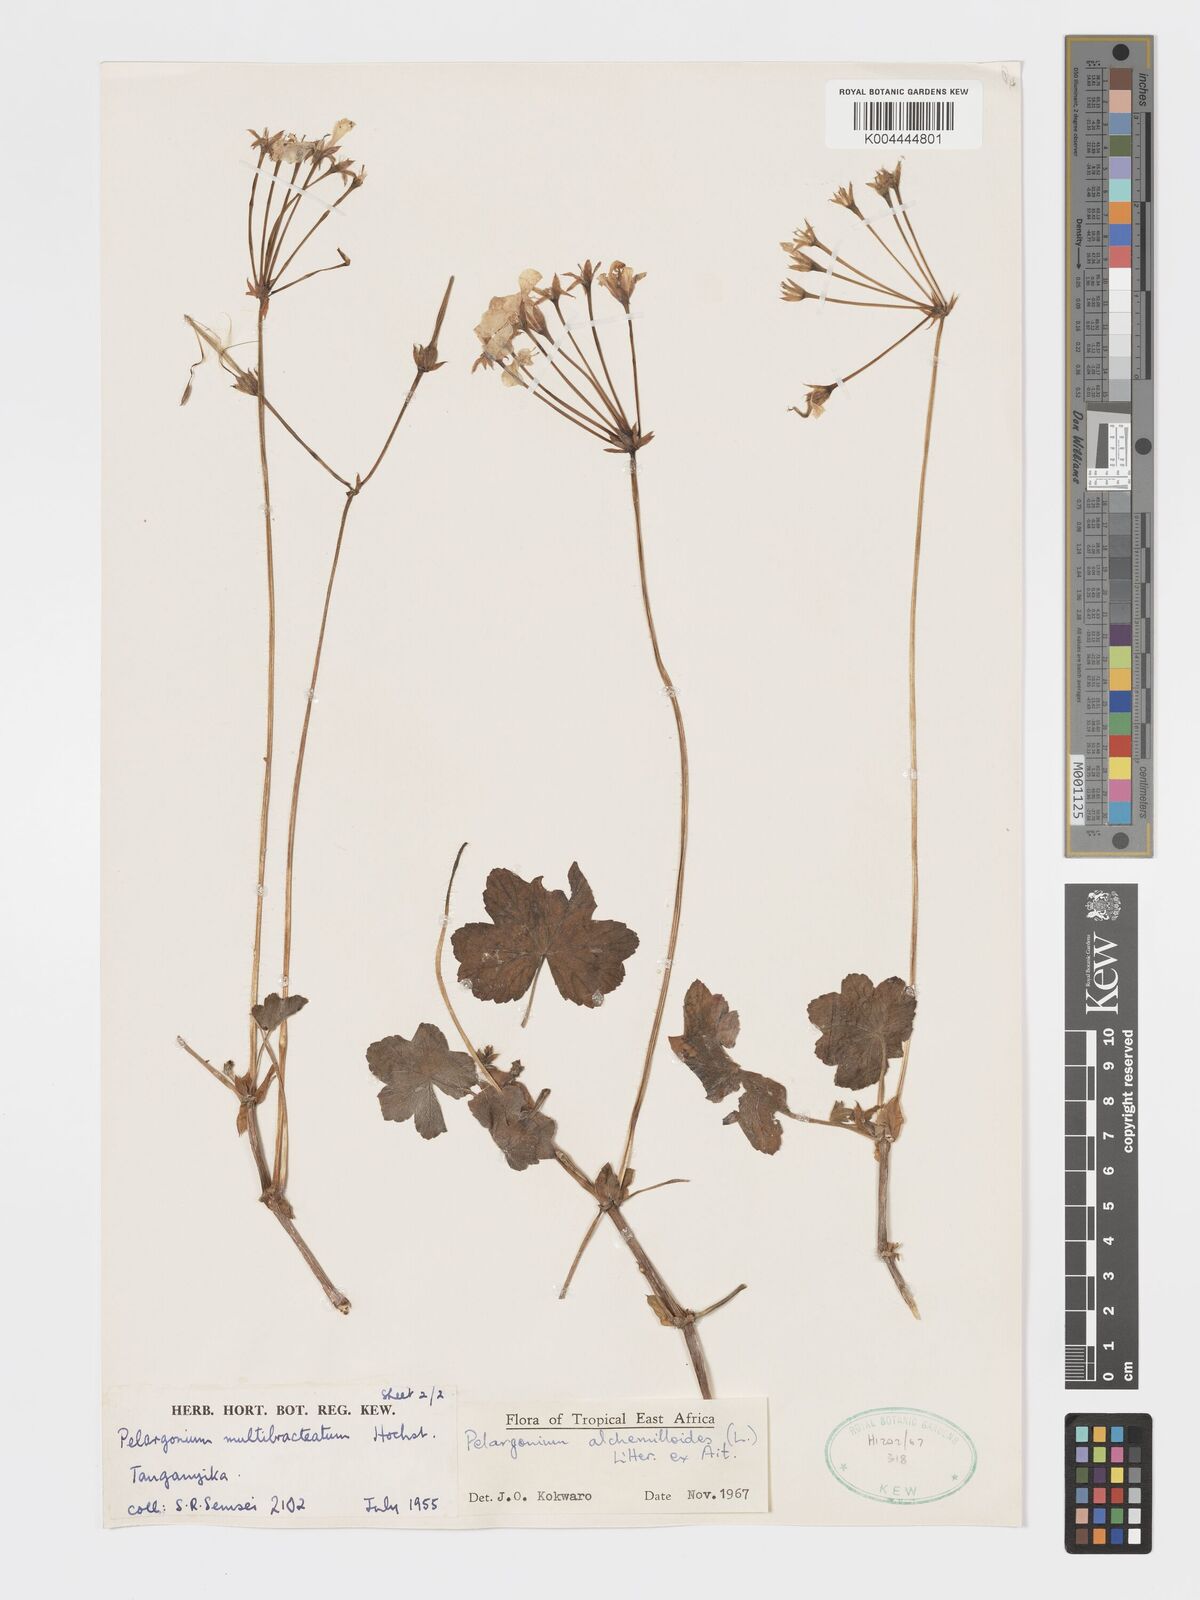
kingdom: Plantae
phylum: Tracheophyta
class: Magnoliopsida
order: Geraniales
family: Geraniaceae
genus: Pelargonium
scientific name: Pelargonium alchemilloides
